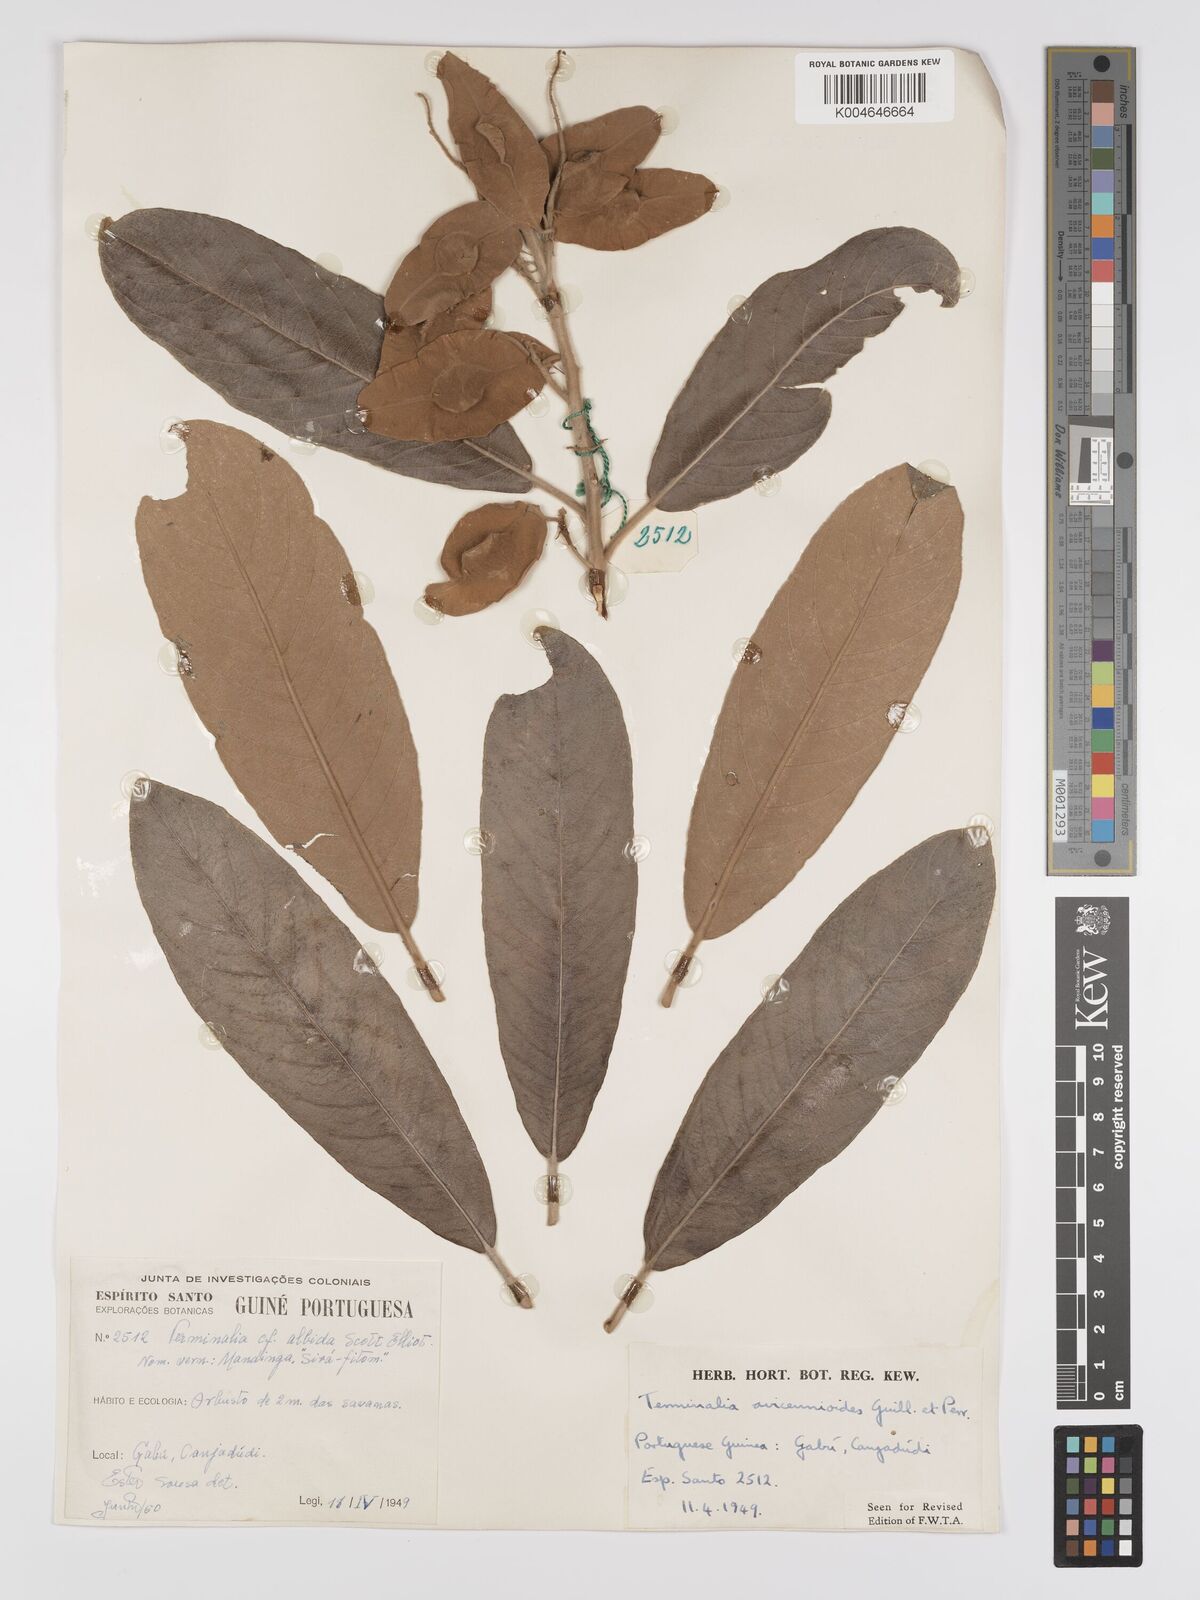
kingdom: Plantae
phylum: Tracheophyta
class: Magnoliopsida
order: Myrtales
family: Combretaceae
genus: Terminalia
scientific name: Terminalia avicennioides
